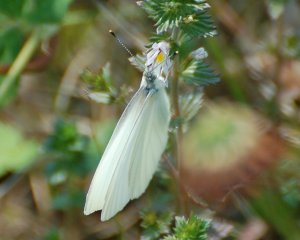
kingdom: Animalia
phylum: Arthropoda
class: Insecta
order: Lepidoptera
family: Pieridae
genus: Pieris
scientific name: Pieris oleracea
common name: Mustard White
